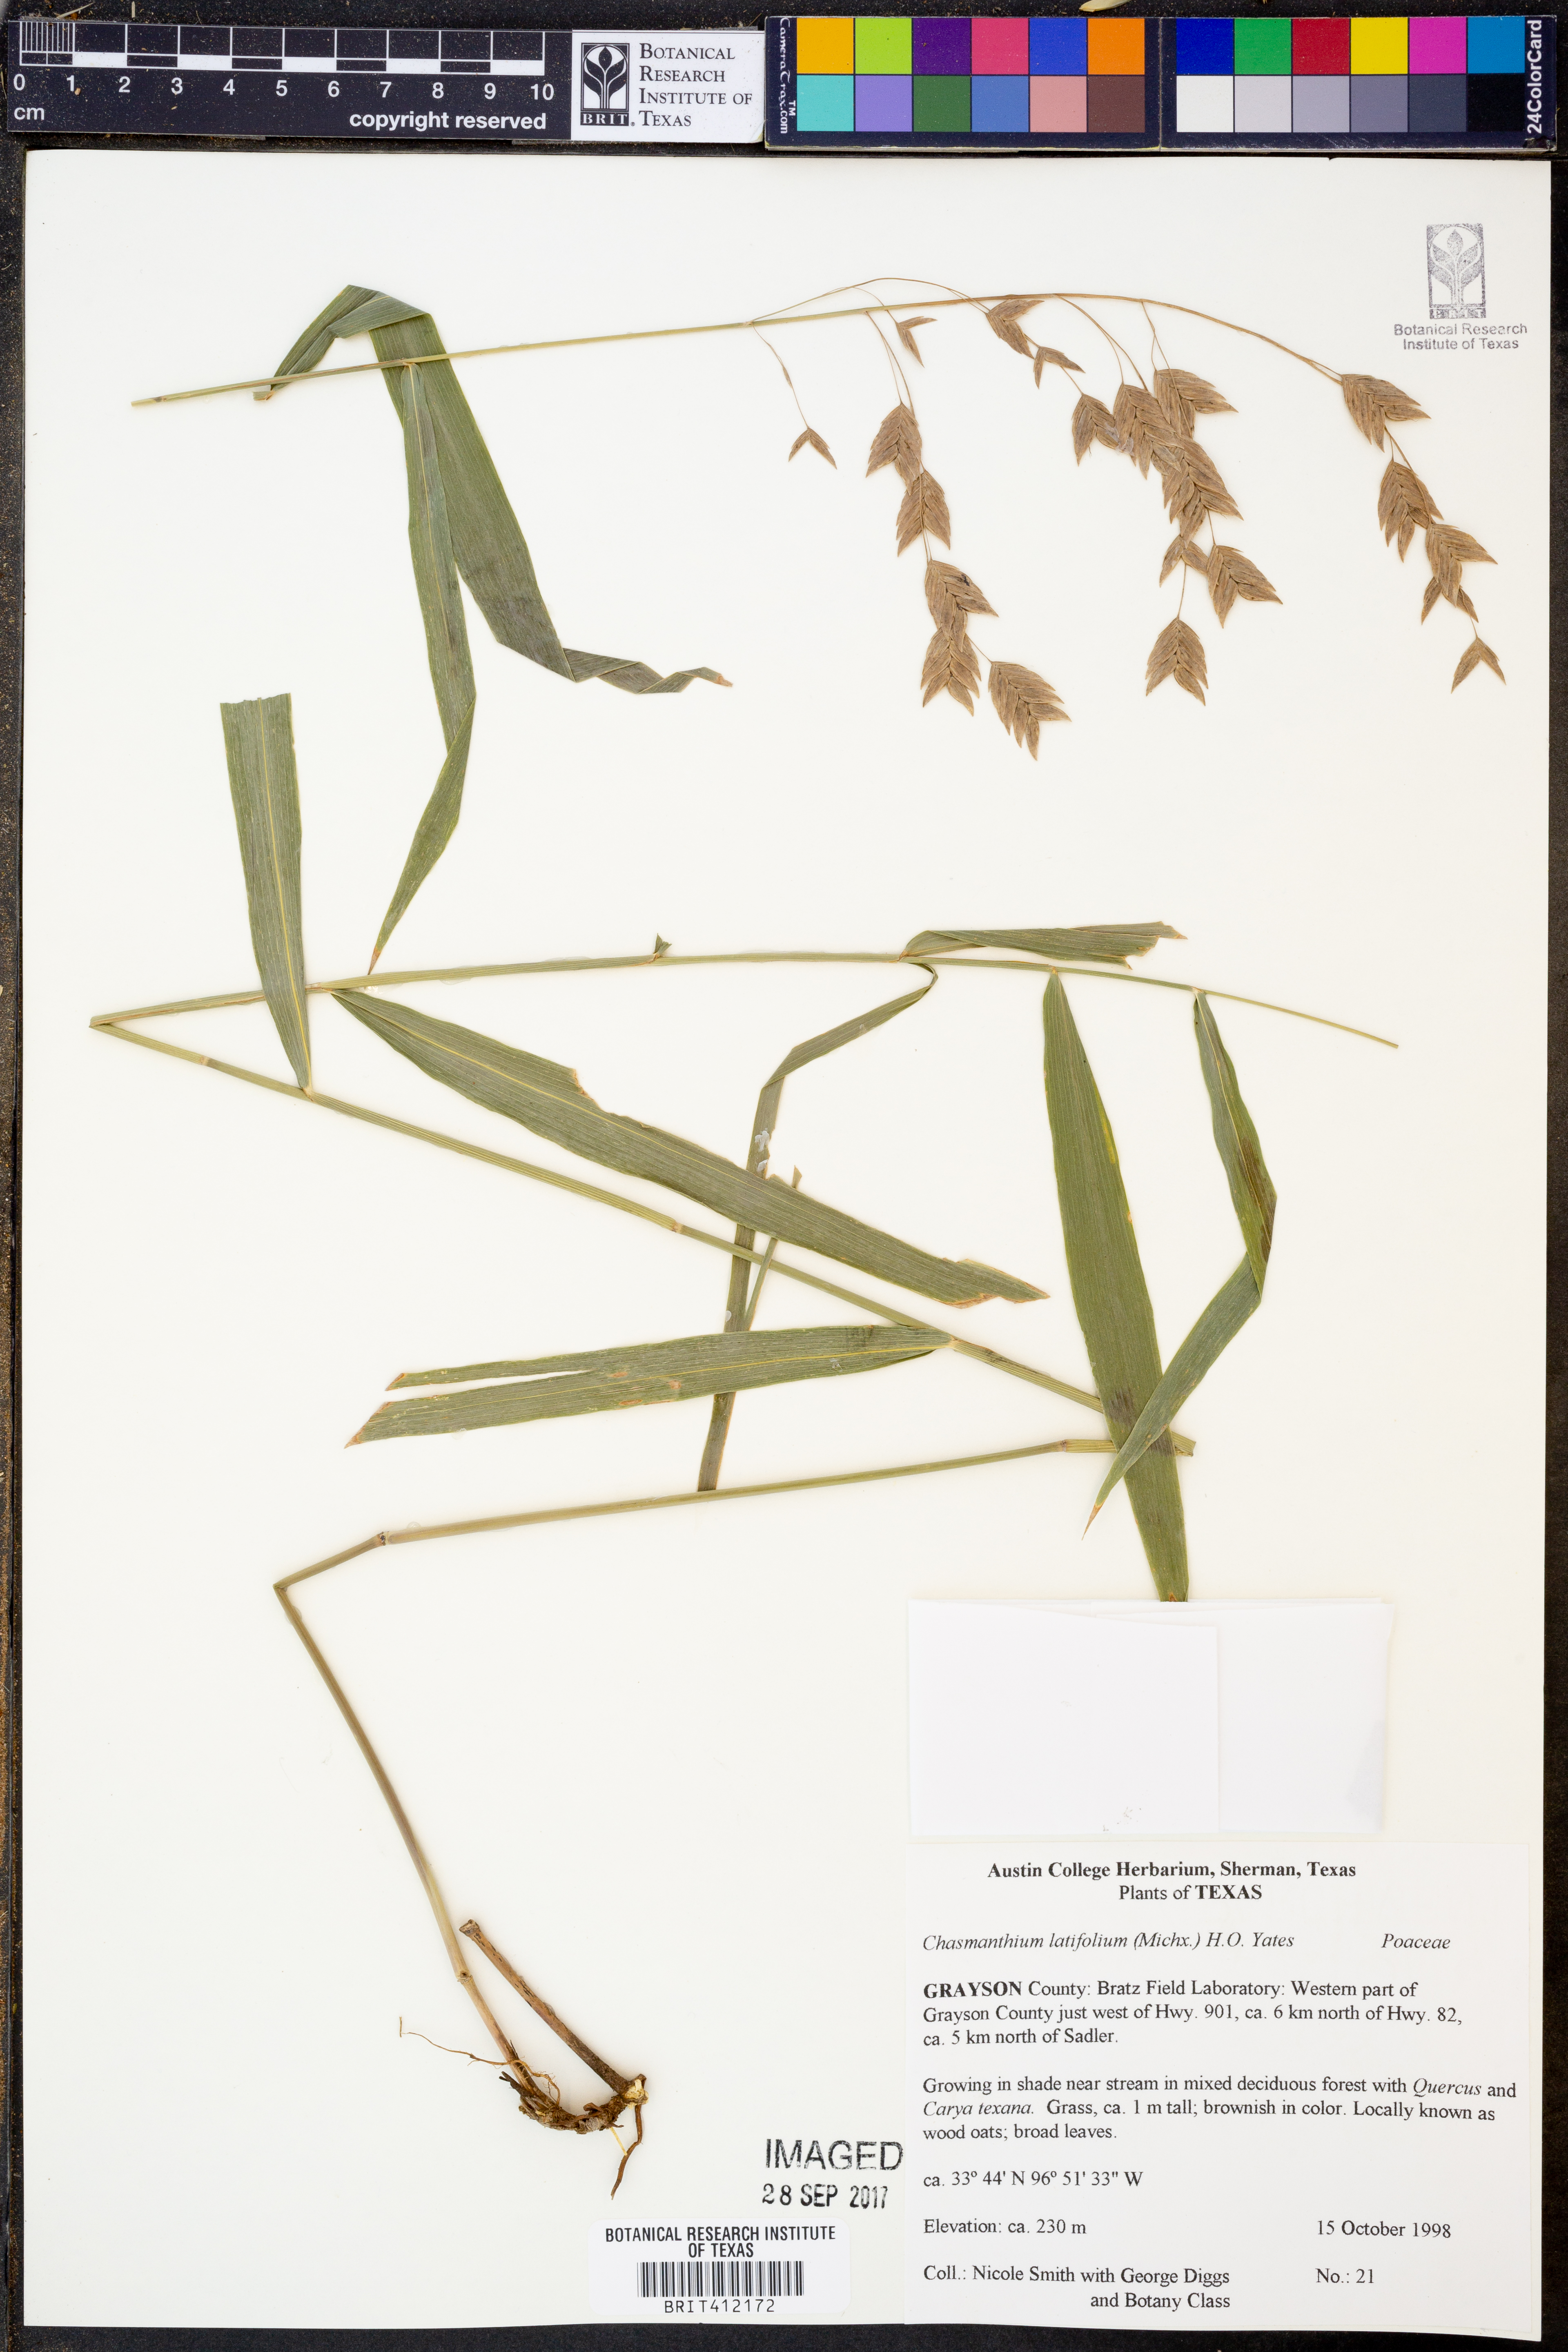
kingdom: Plantae
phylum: Tracheophyta
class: Liliopsida
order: Poales
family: Poaceae
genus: Chasmanthium
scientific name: Chasmanthium latifolium
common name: Broad-leaved chasmanthium
